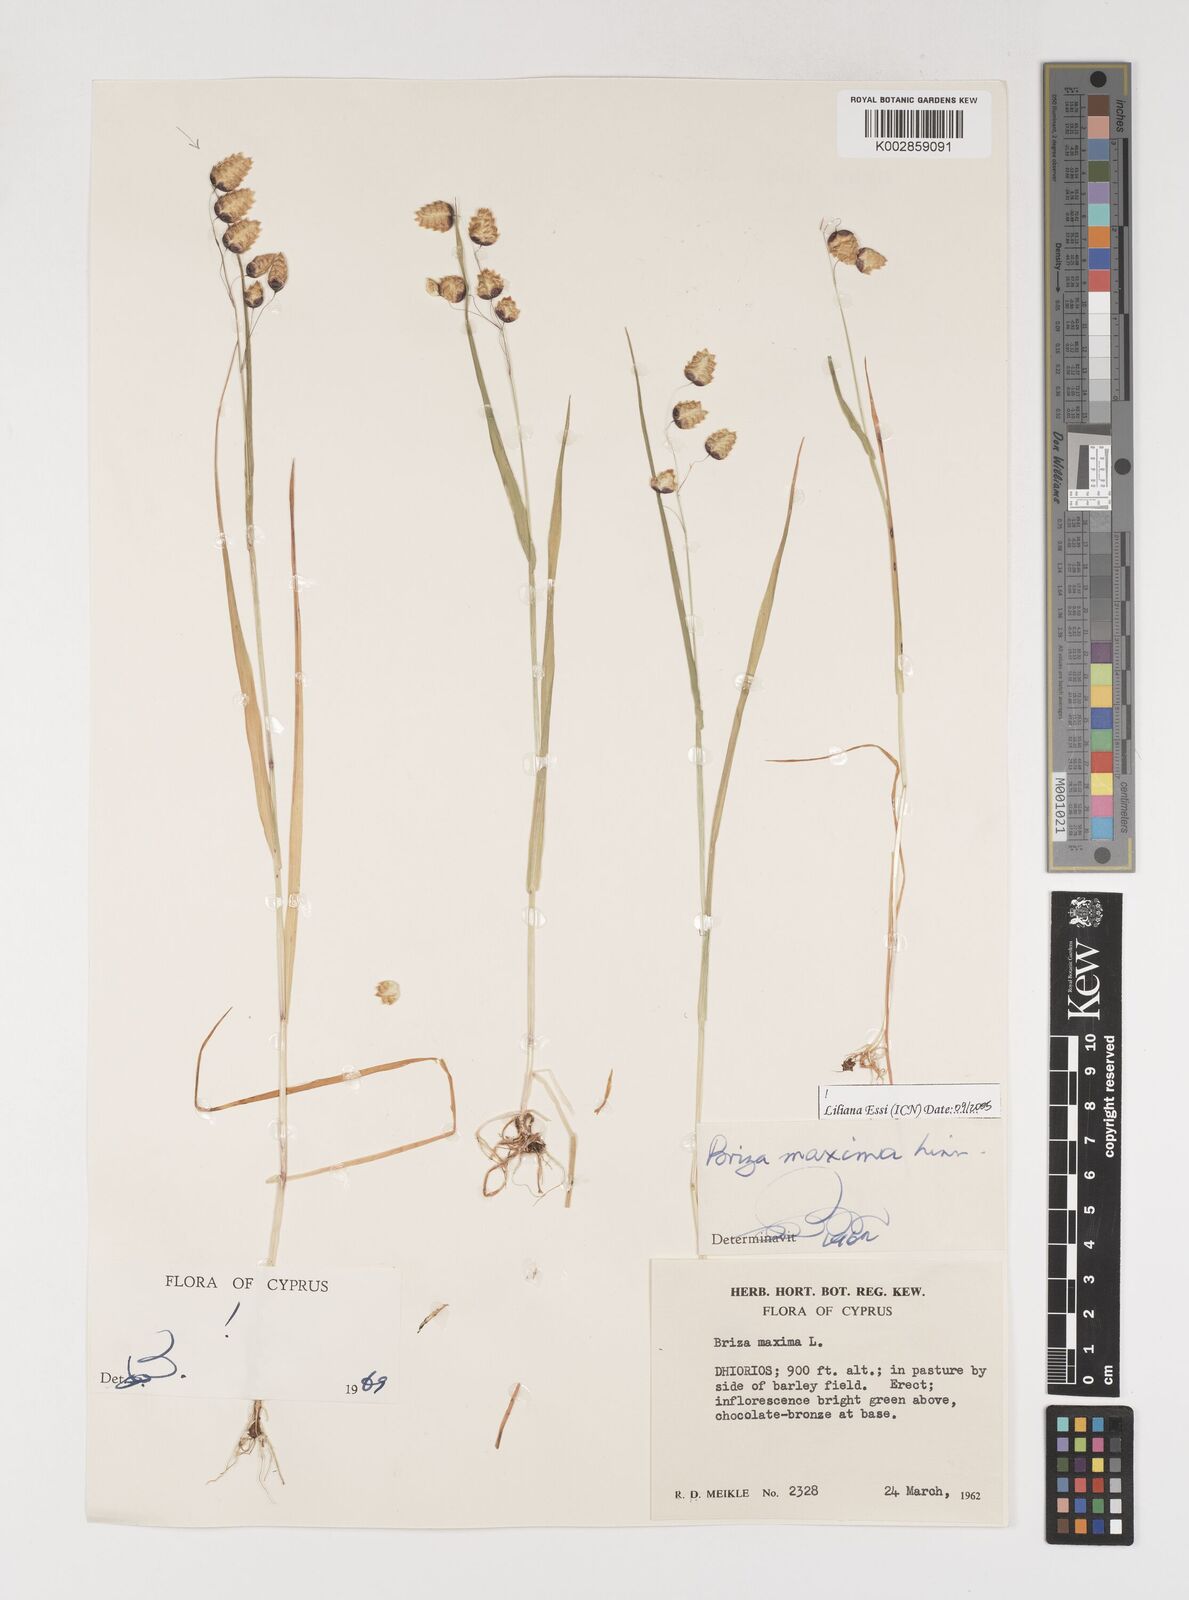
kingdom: Plantae
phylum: Tracheophyta
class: Liliopsida
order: Poales
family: Poaceae
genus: Briza
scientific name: Briza maxima
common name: Big quakinggrass
